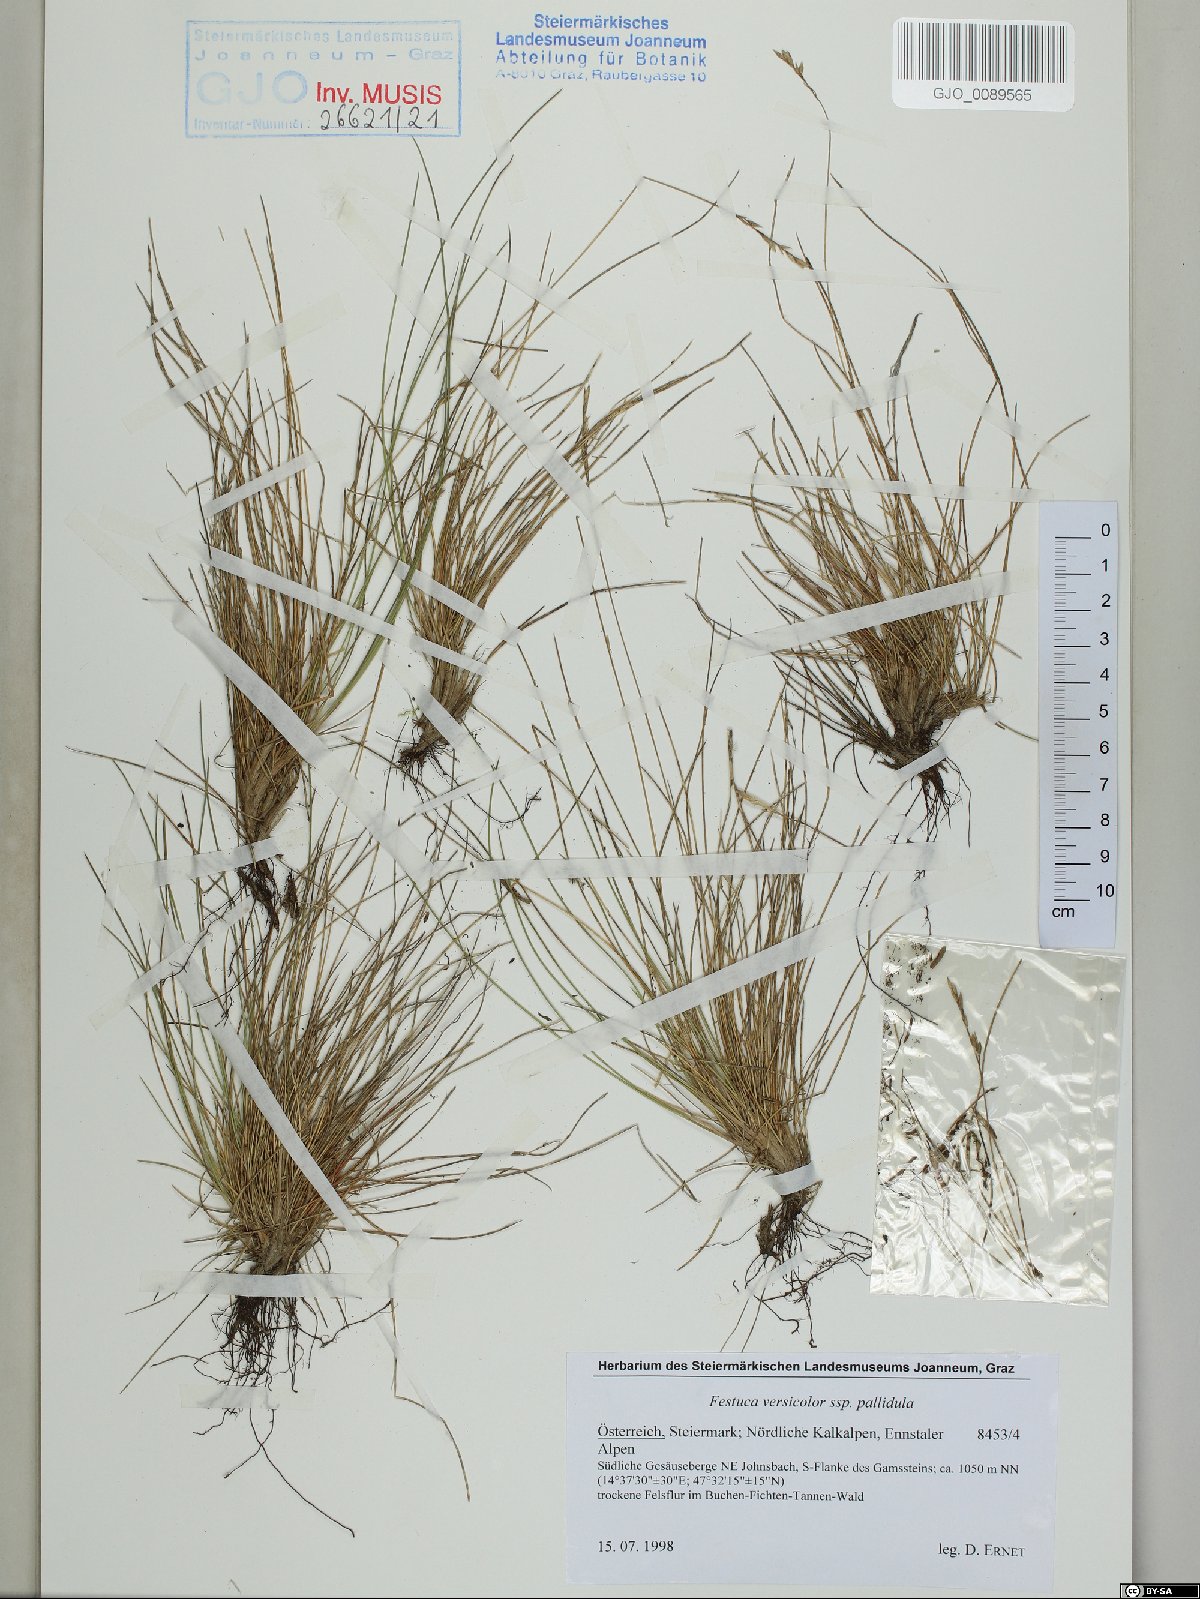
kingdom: Plantae
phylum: Tracheophyta
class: Liliopsida
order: Poales
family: Poaceae
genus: Festuca
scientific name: Festuca varia
